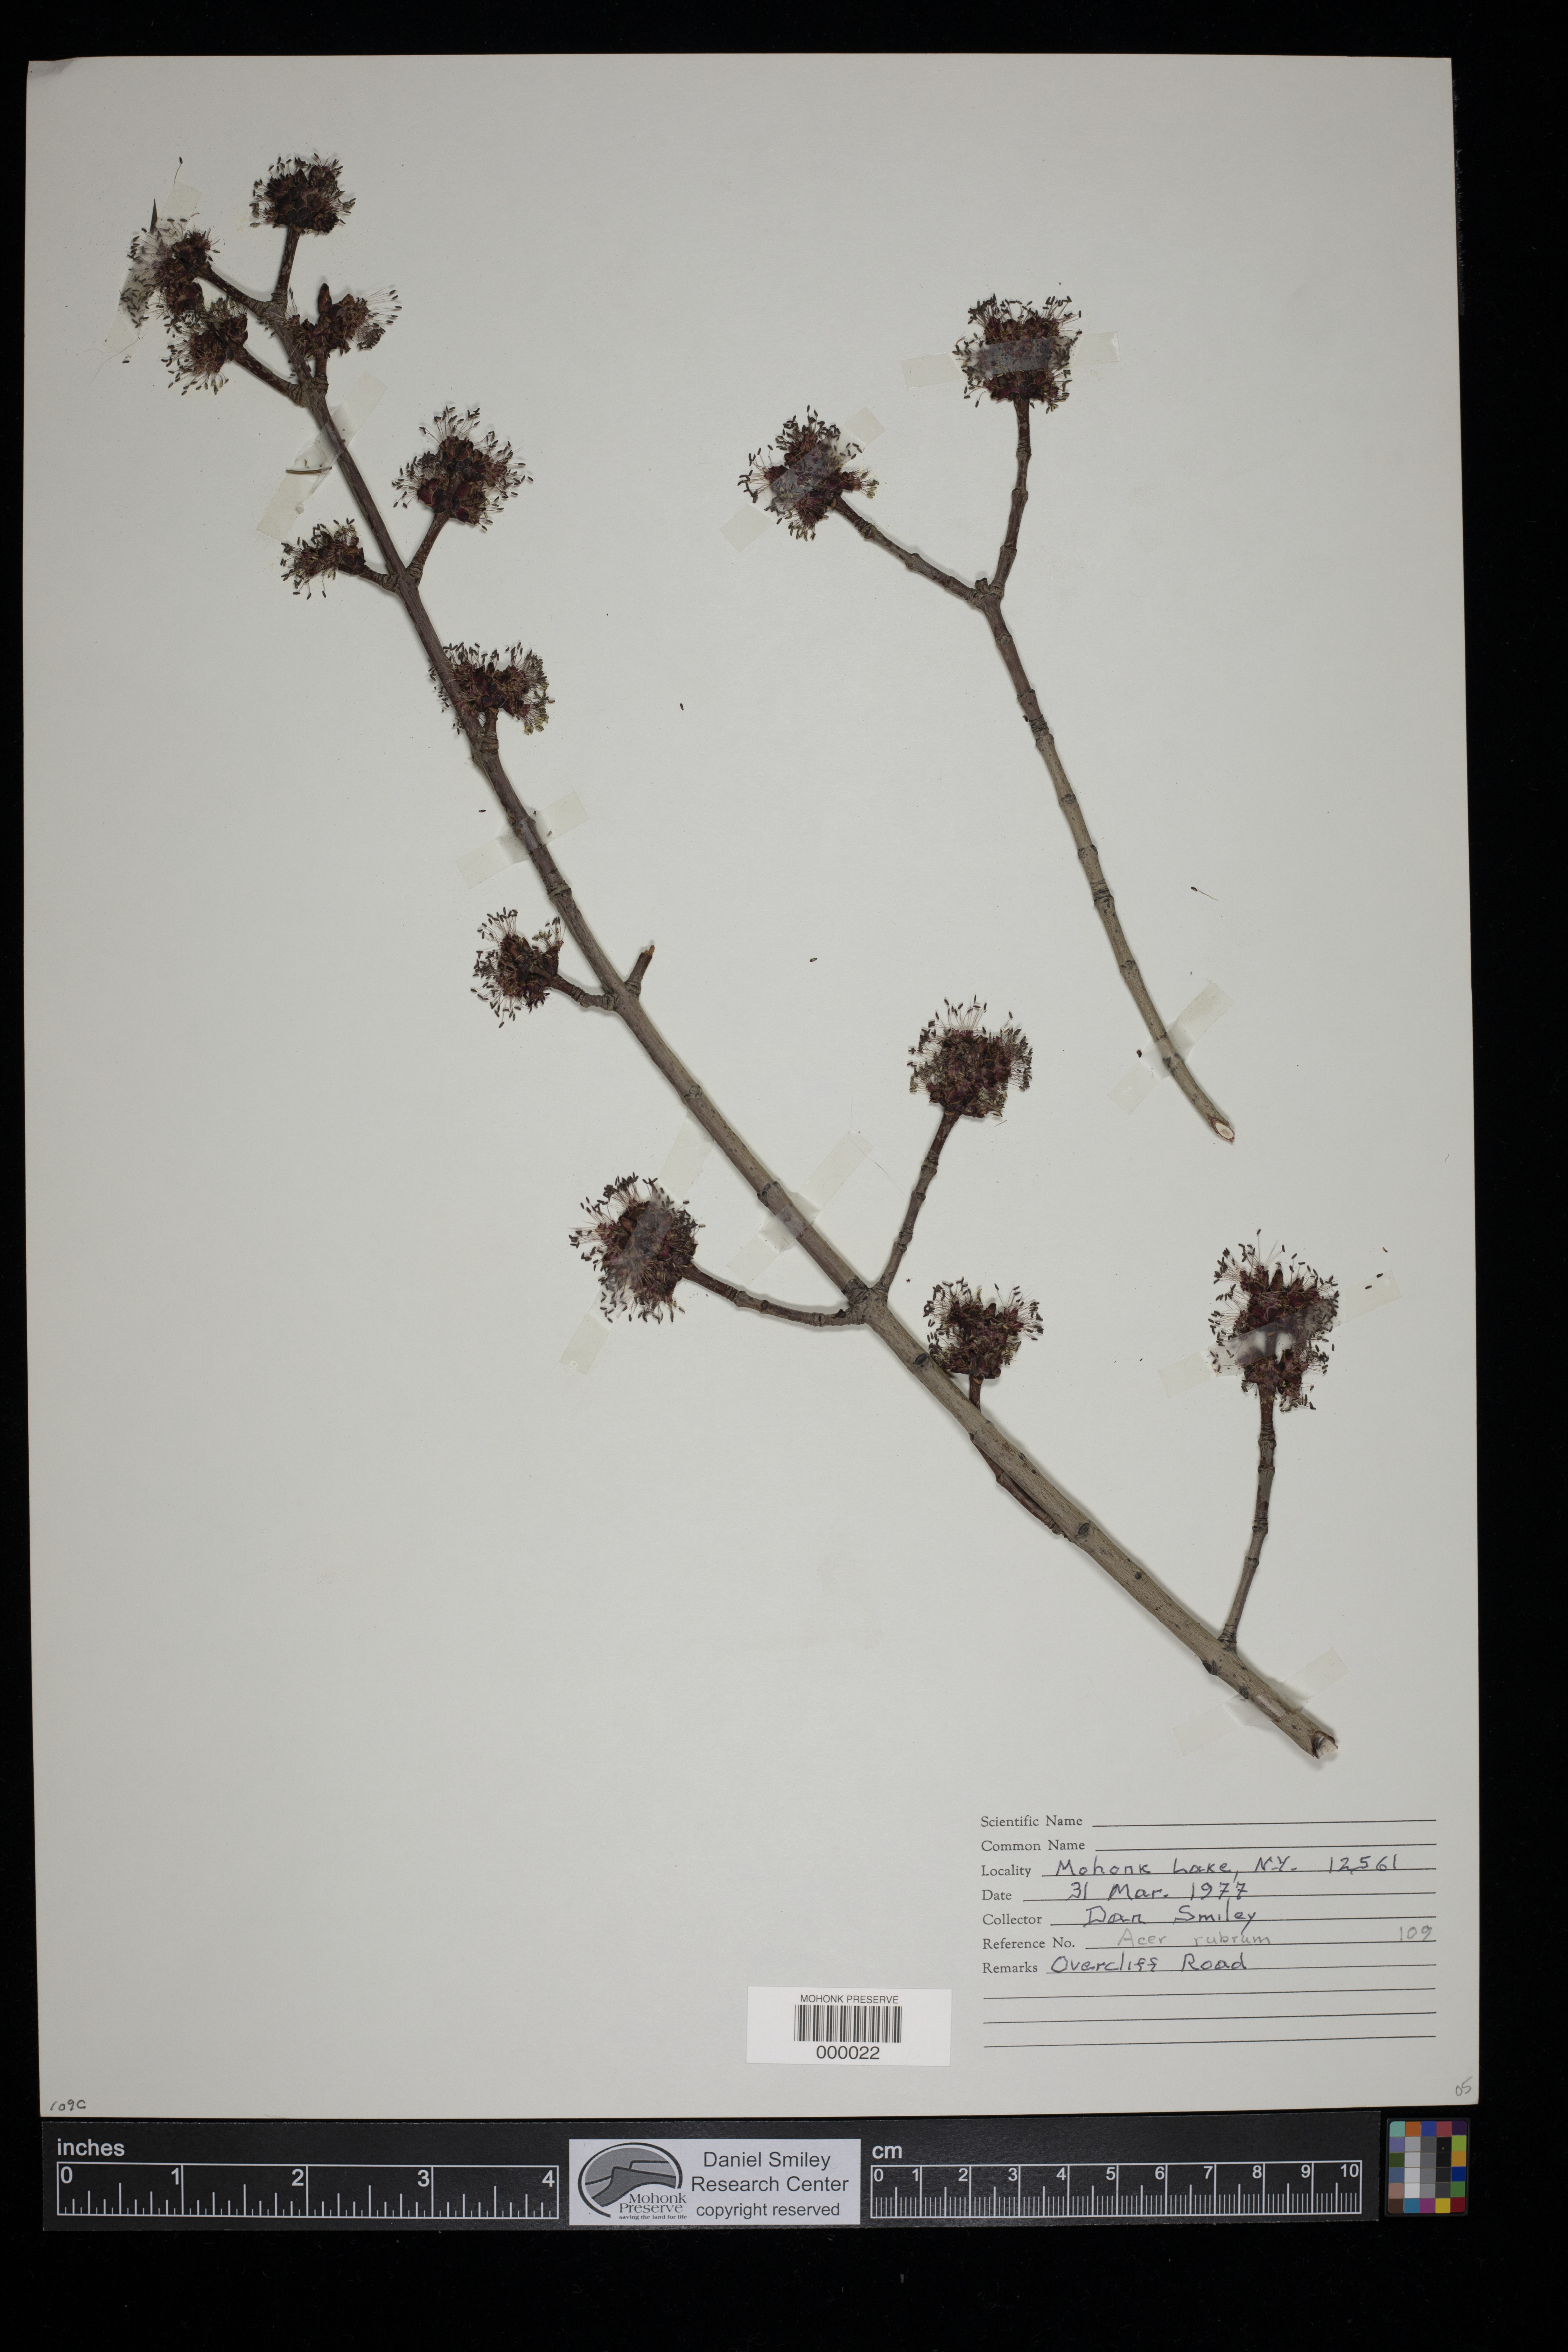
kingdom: Plantae
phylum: Tracheophyta
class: Magnoliopsida
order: Sapindales
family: Sapindaceae
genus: Acer
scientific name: Acer rubrum
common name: Red maple
